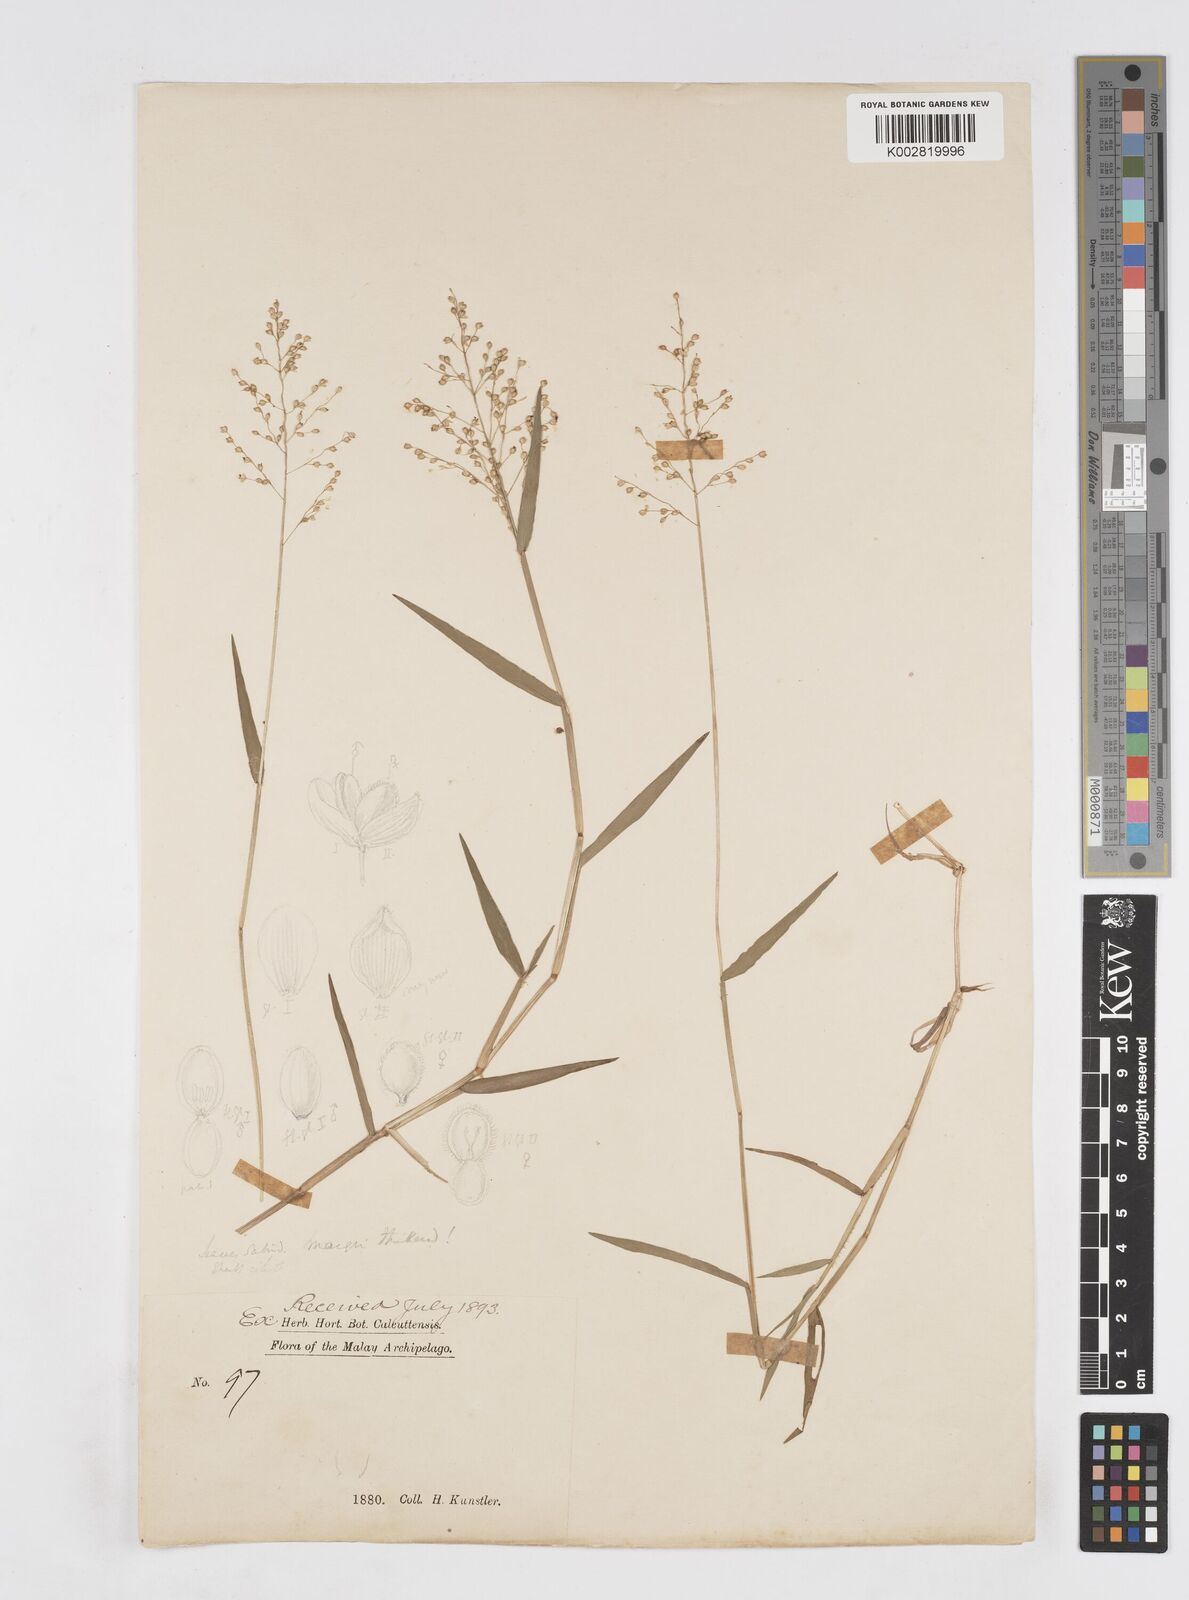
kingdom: Plantae
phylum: Tracheophyta
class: Liliopsida
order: Poales
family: Poaceae
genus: Isachne
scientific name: Isachne globosa
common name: Swamp millet
